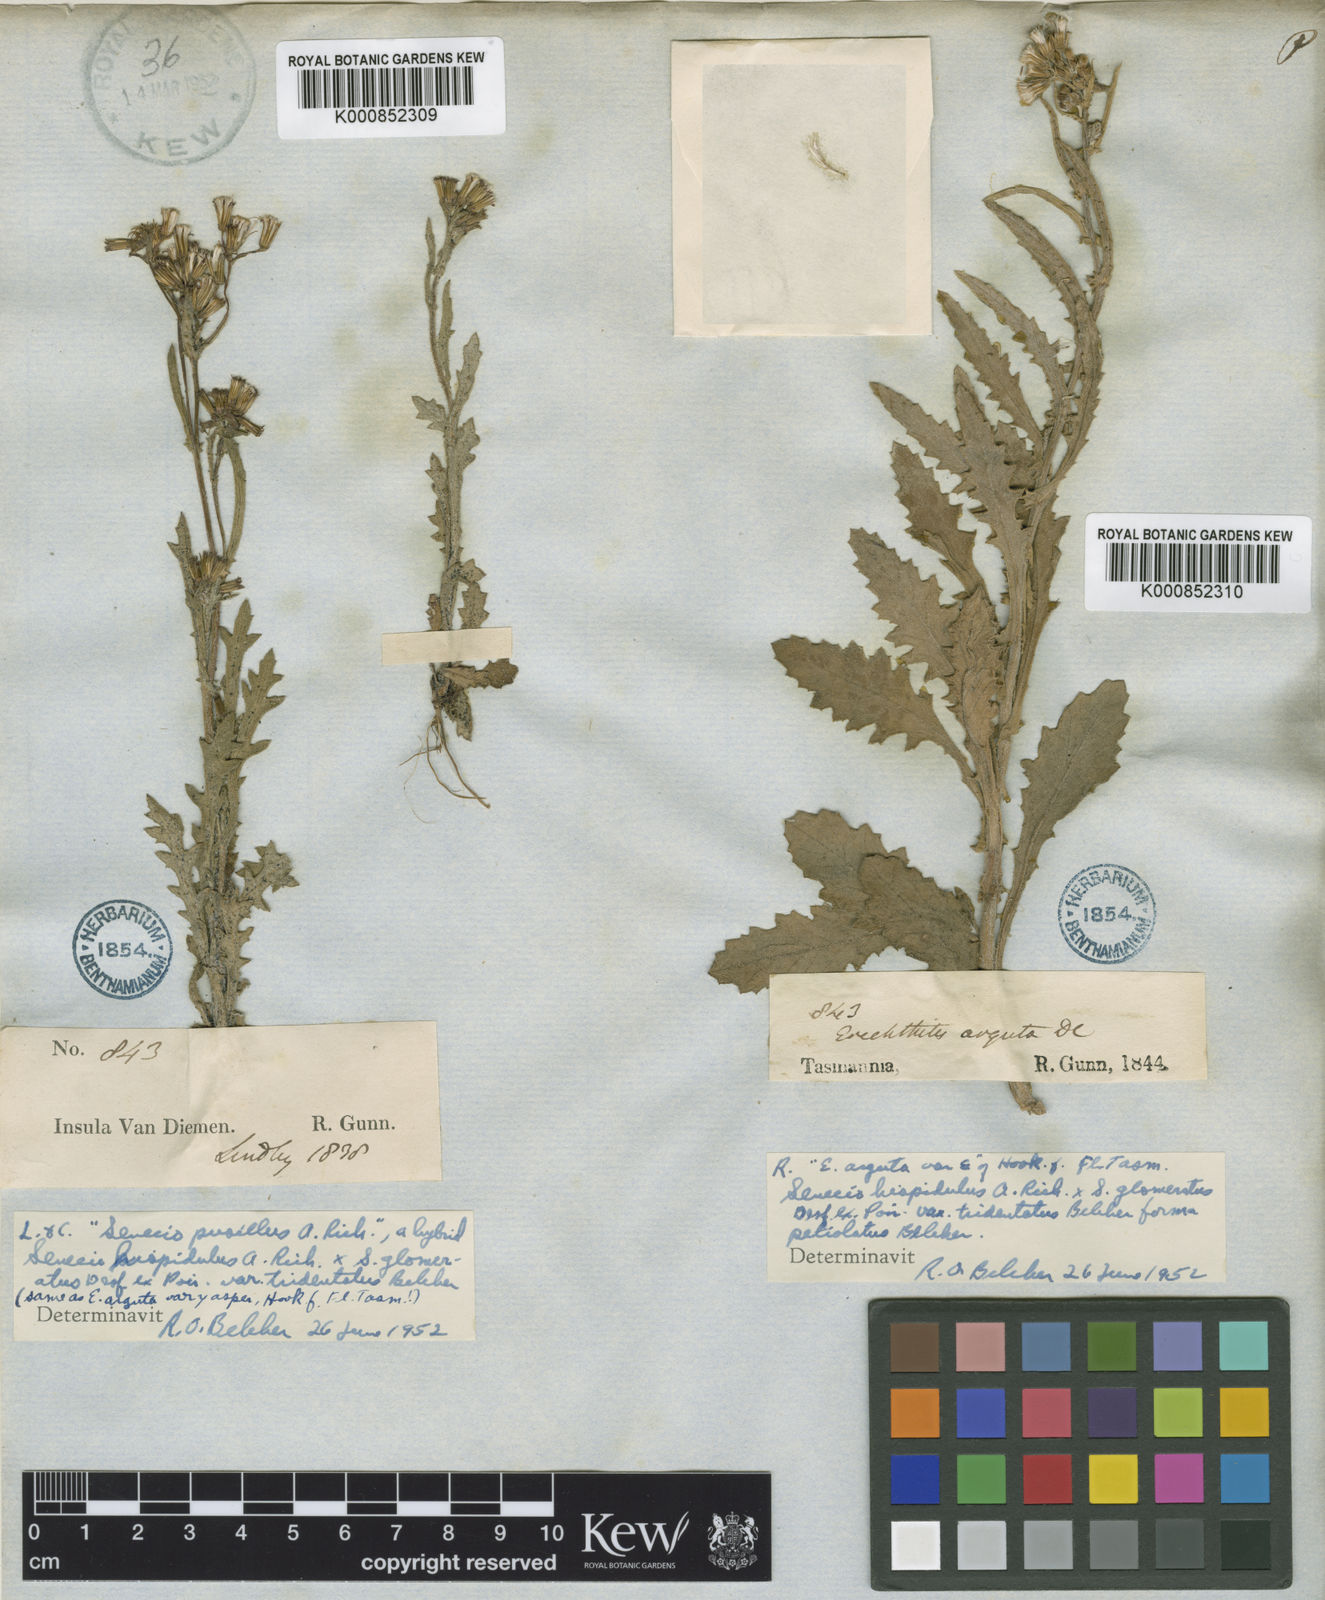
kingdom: Plantae
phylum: Tracheophyta
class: Magnoliopsida
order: Asterales
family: Asteraceae
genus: Senecio
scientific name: Senecio hispidulus
